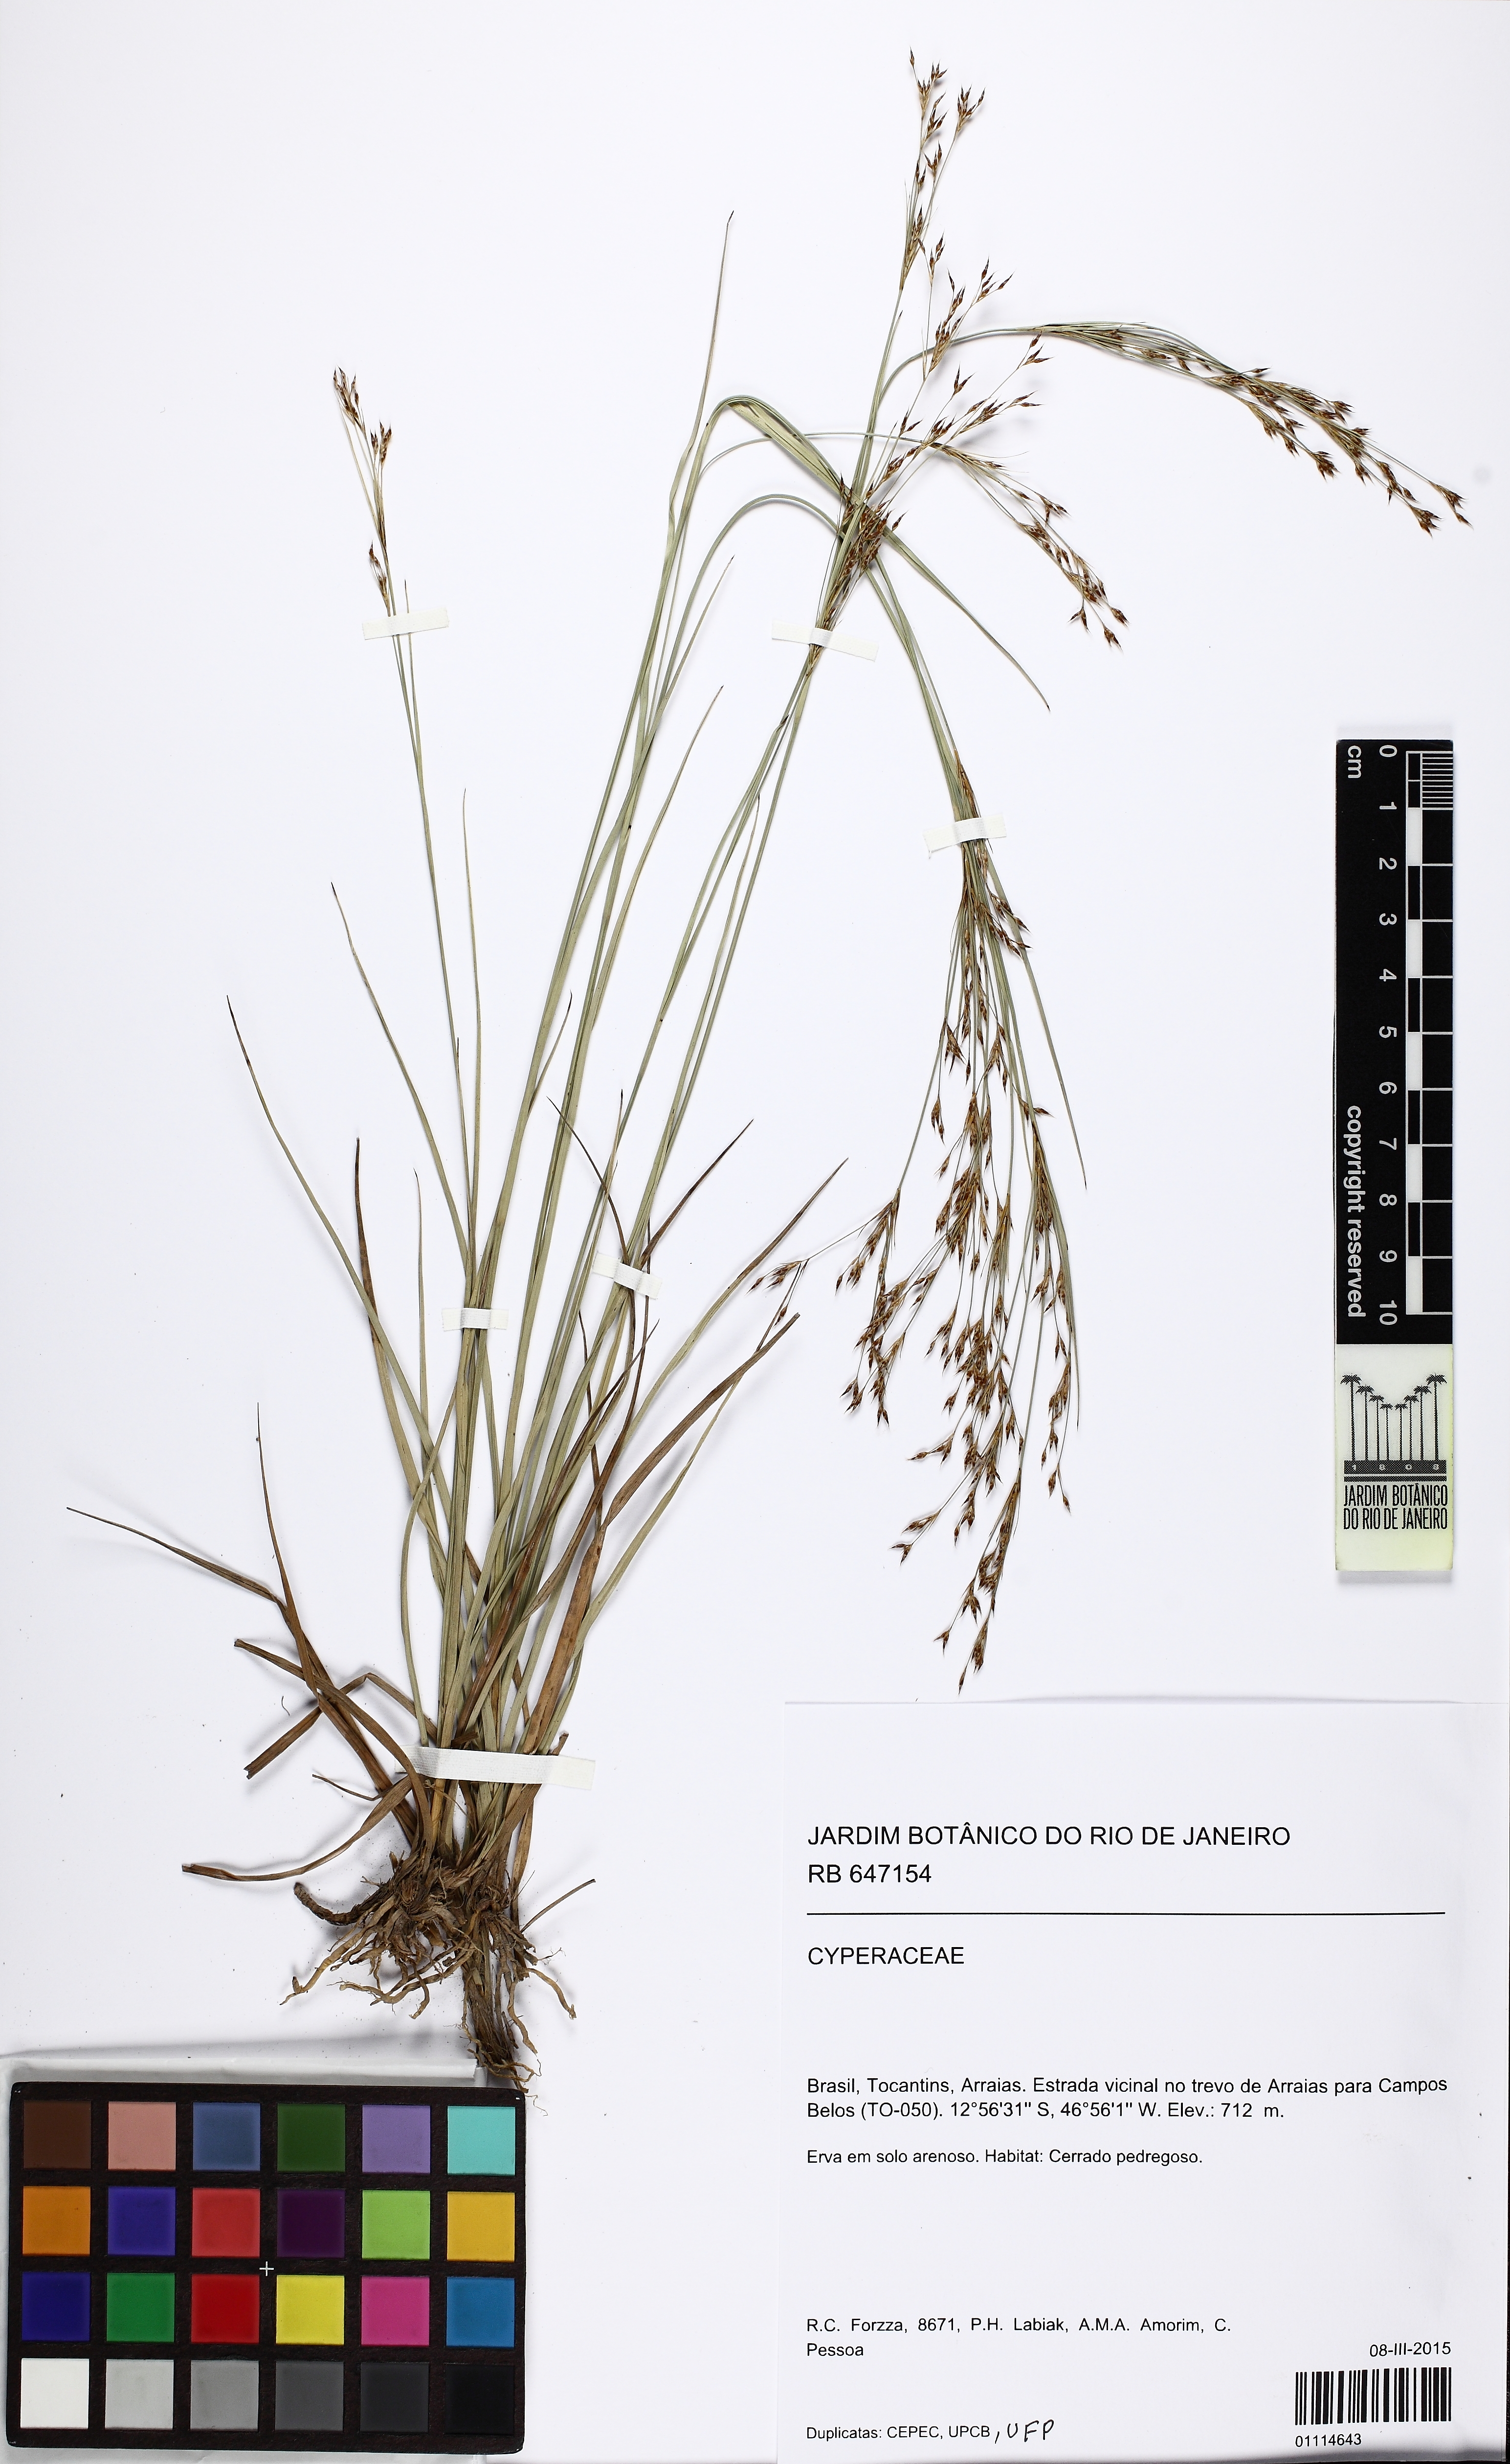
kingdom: Plantae
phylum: Tracheophyta
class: Liliopsida
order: Poales
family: Cyperaceae
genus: Rhynchospora
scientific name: Rhynchospora
